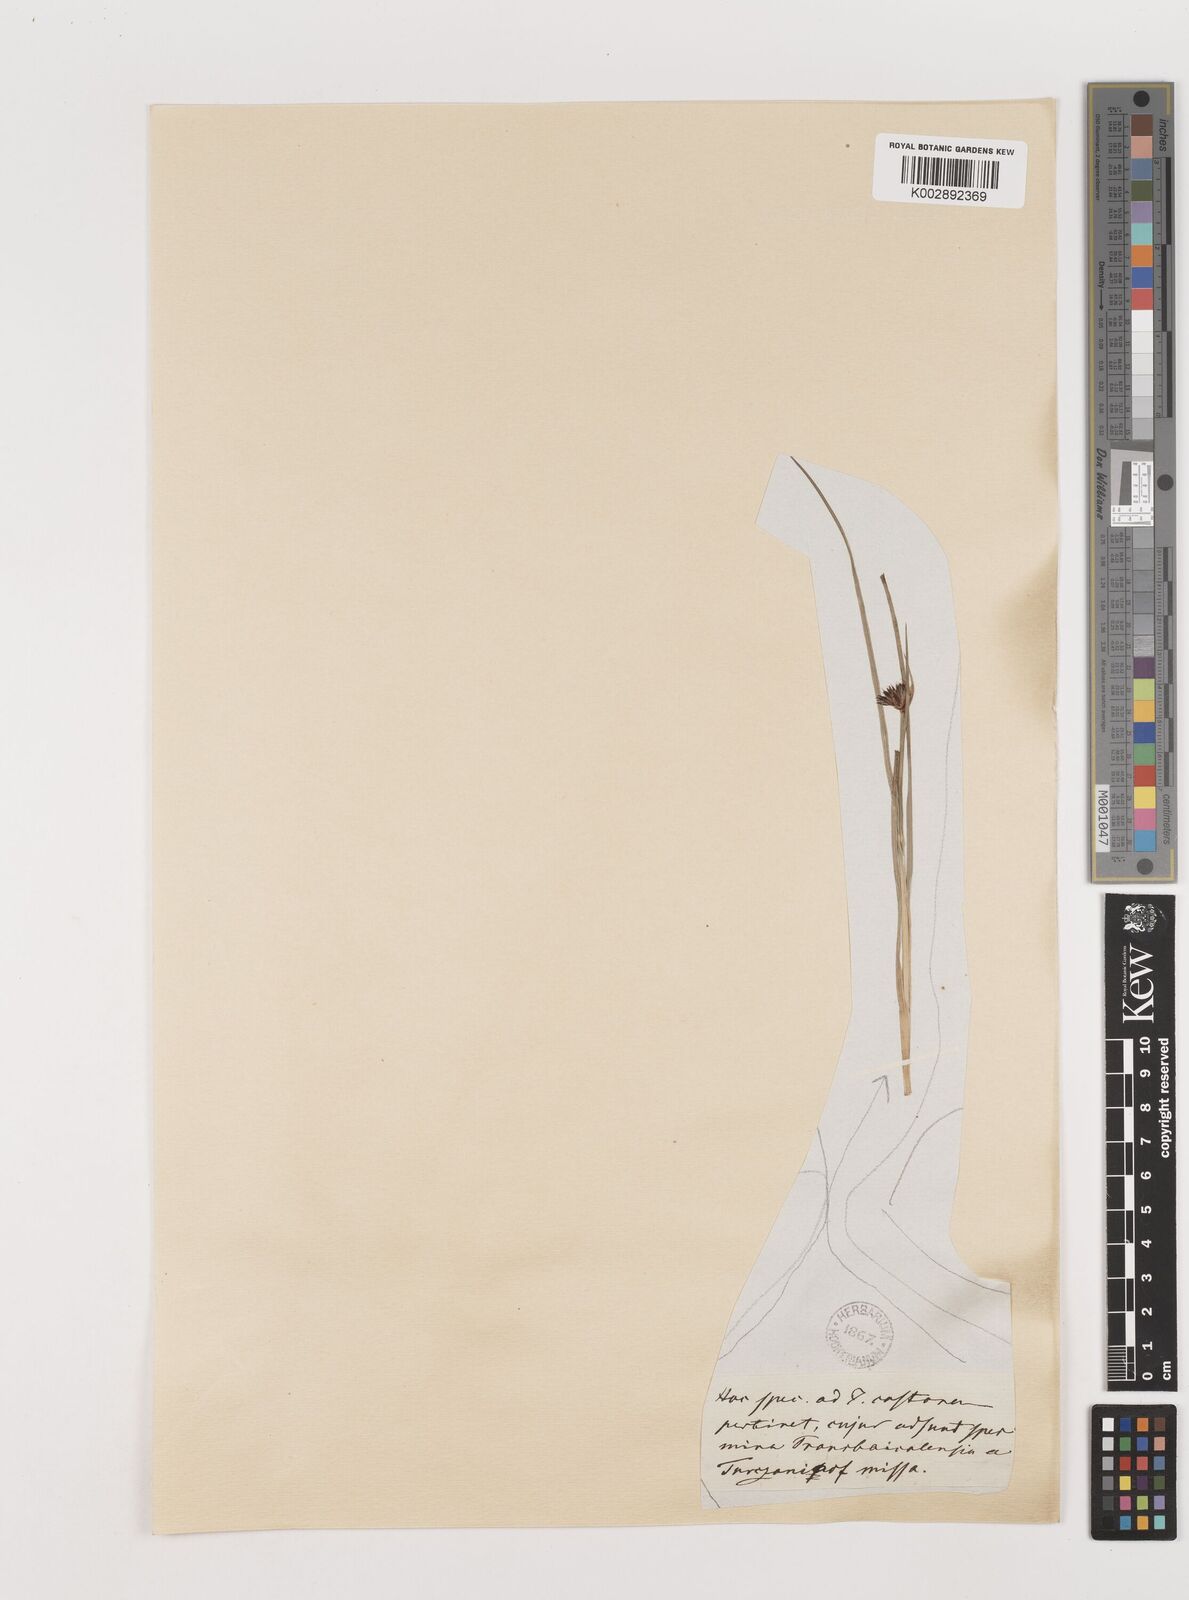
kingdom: Plantae
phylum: Tracheophyta
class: Liliopsida
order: Poales
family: Juncaceae
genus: Juncus
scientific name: Juncus castaneus
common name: Chestnut rush
